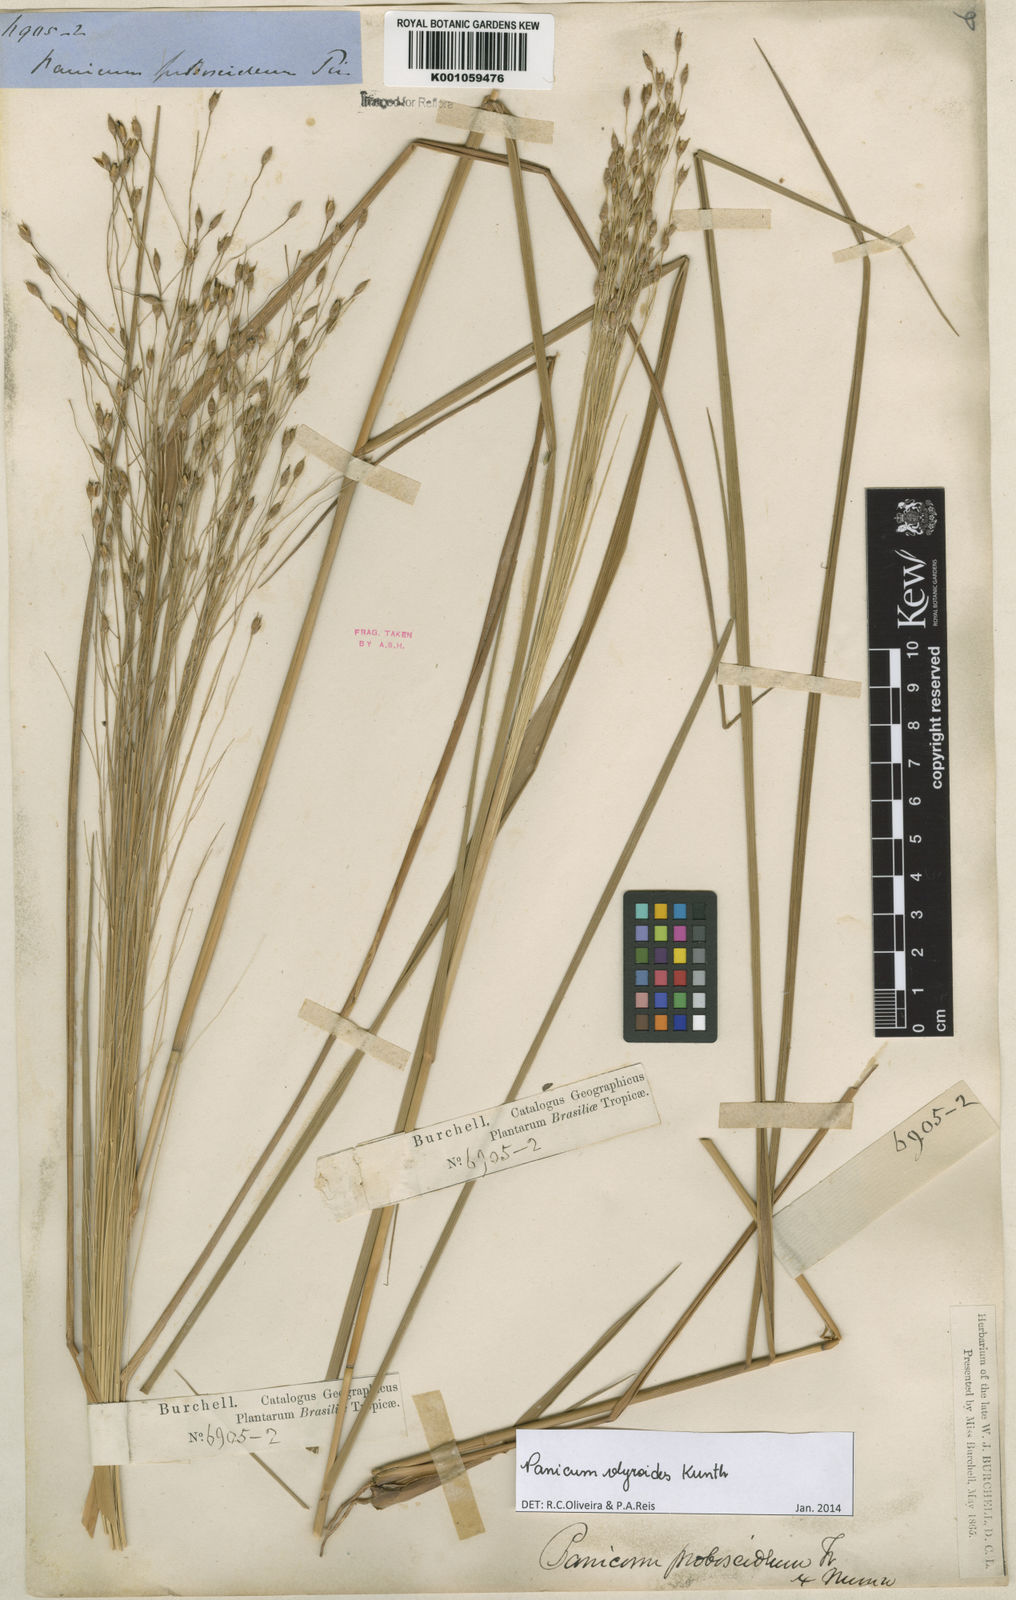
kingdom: Plantae
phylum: Tracheophyta
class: Liliopsida
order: Poales
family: Poaceae
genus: Panicum
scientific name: Panicum olyroides
